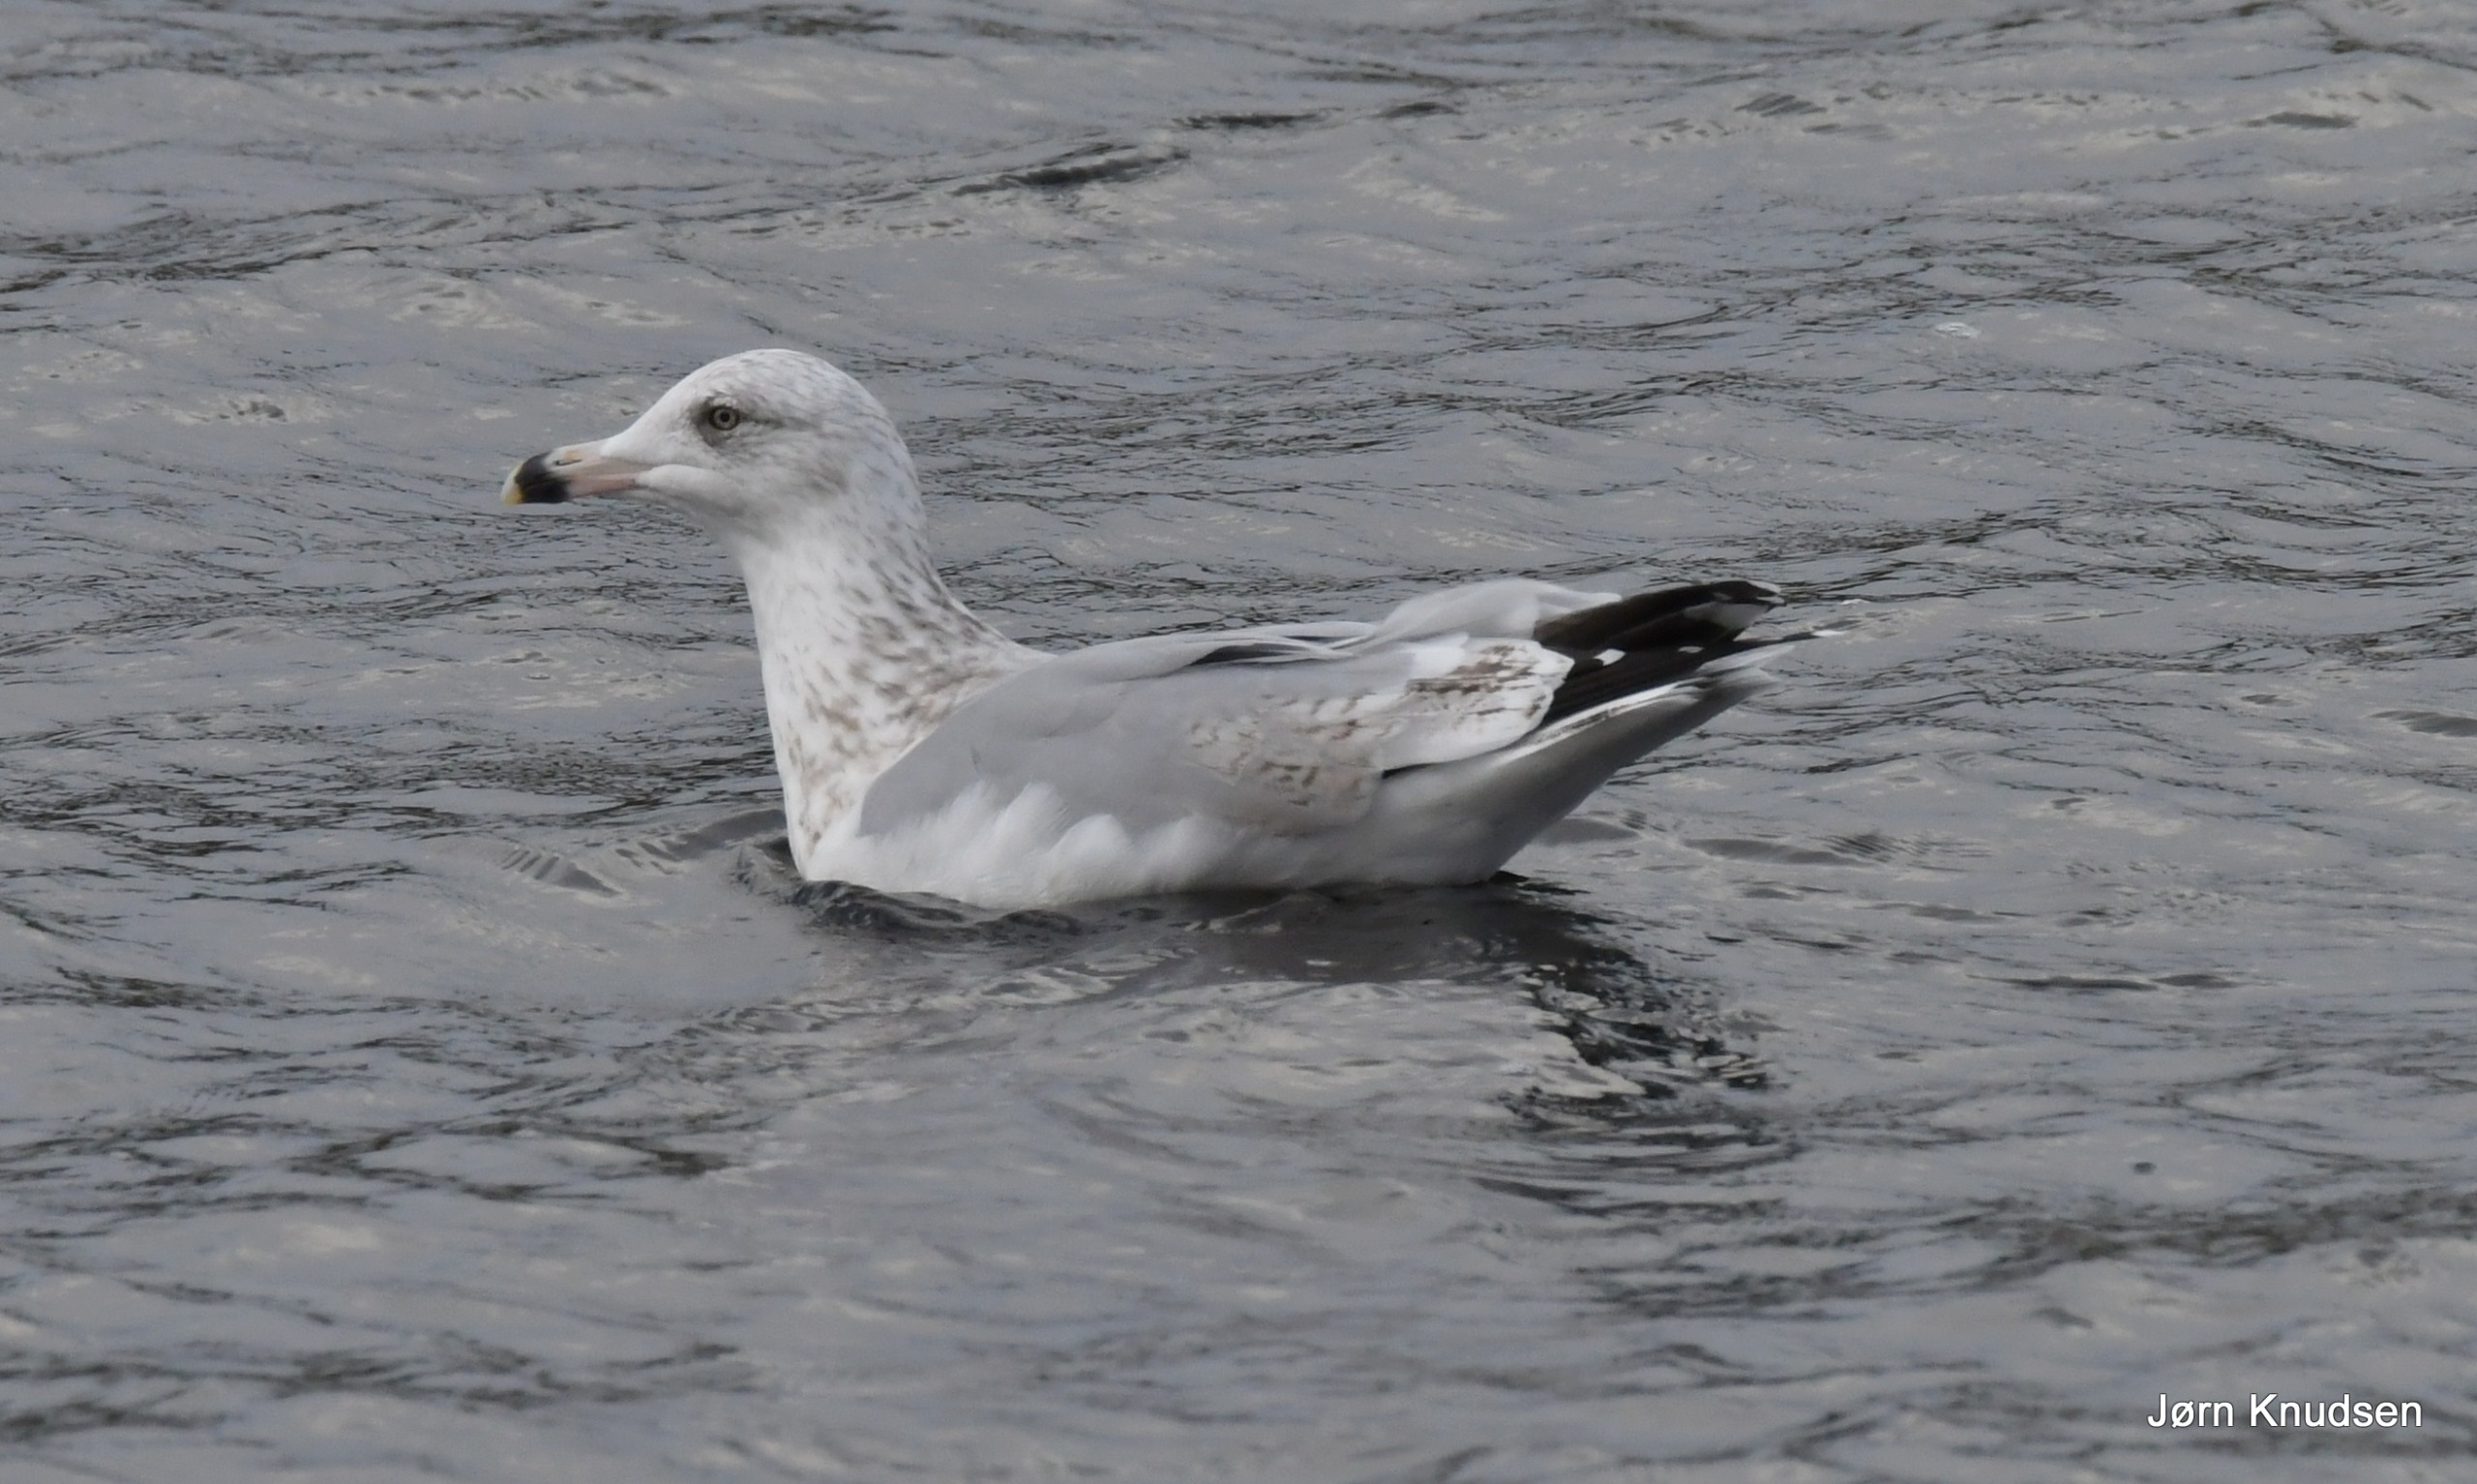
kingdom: Animalia
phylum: Chordata
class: Aves
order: Charadriiformes
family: Laridae
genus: Larus
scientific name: Larus argentatus
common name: Sølvmåge
